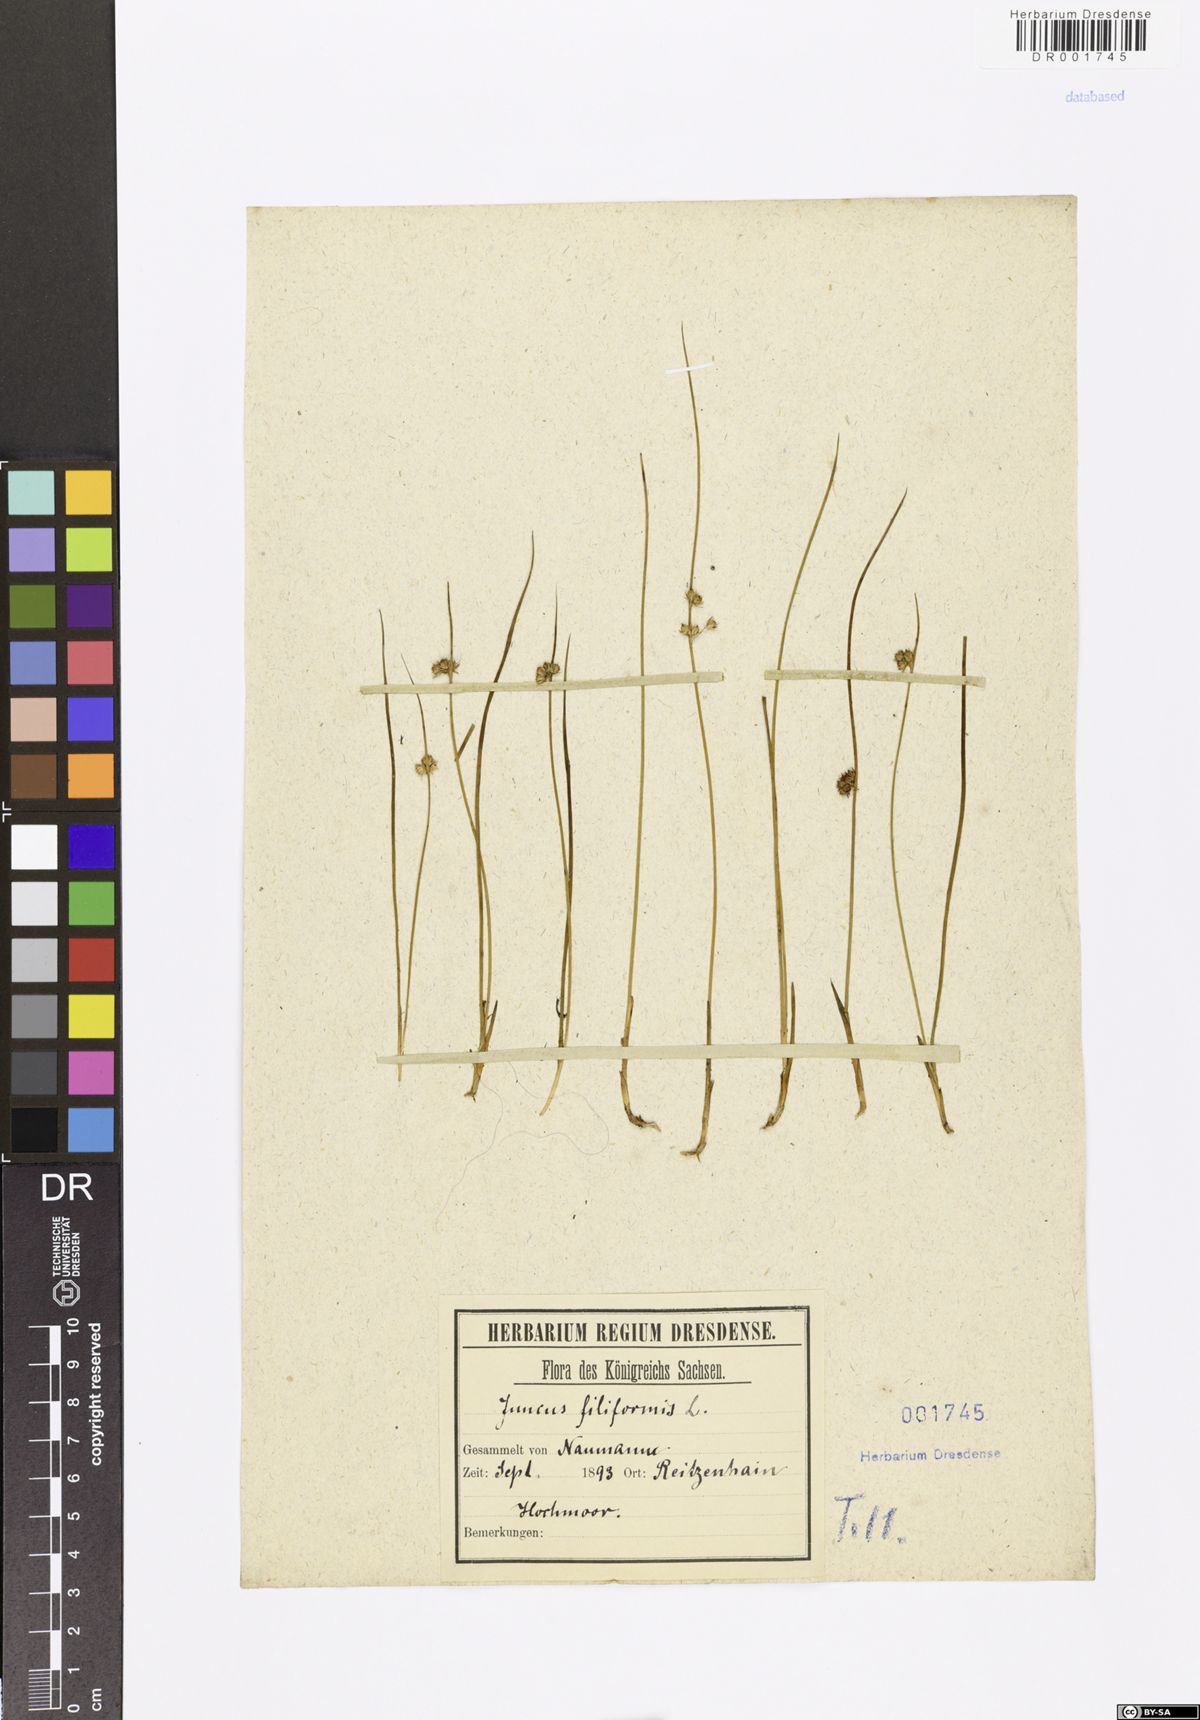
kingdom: Plantae
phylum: Tracheophyta
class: Liliopsida
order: Poales
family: Juncaceae
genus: Juncus
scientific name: Juncus inflexus
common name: Hard rush
